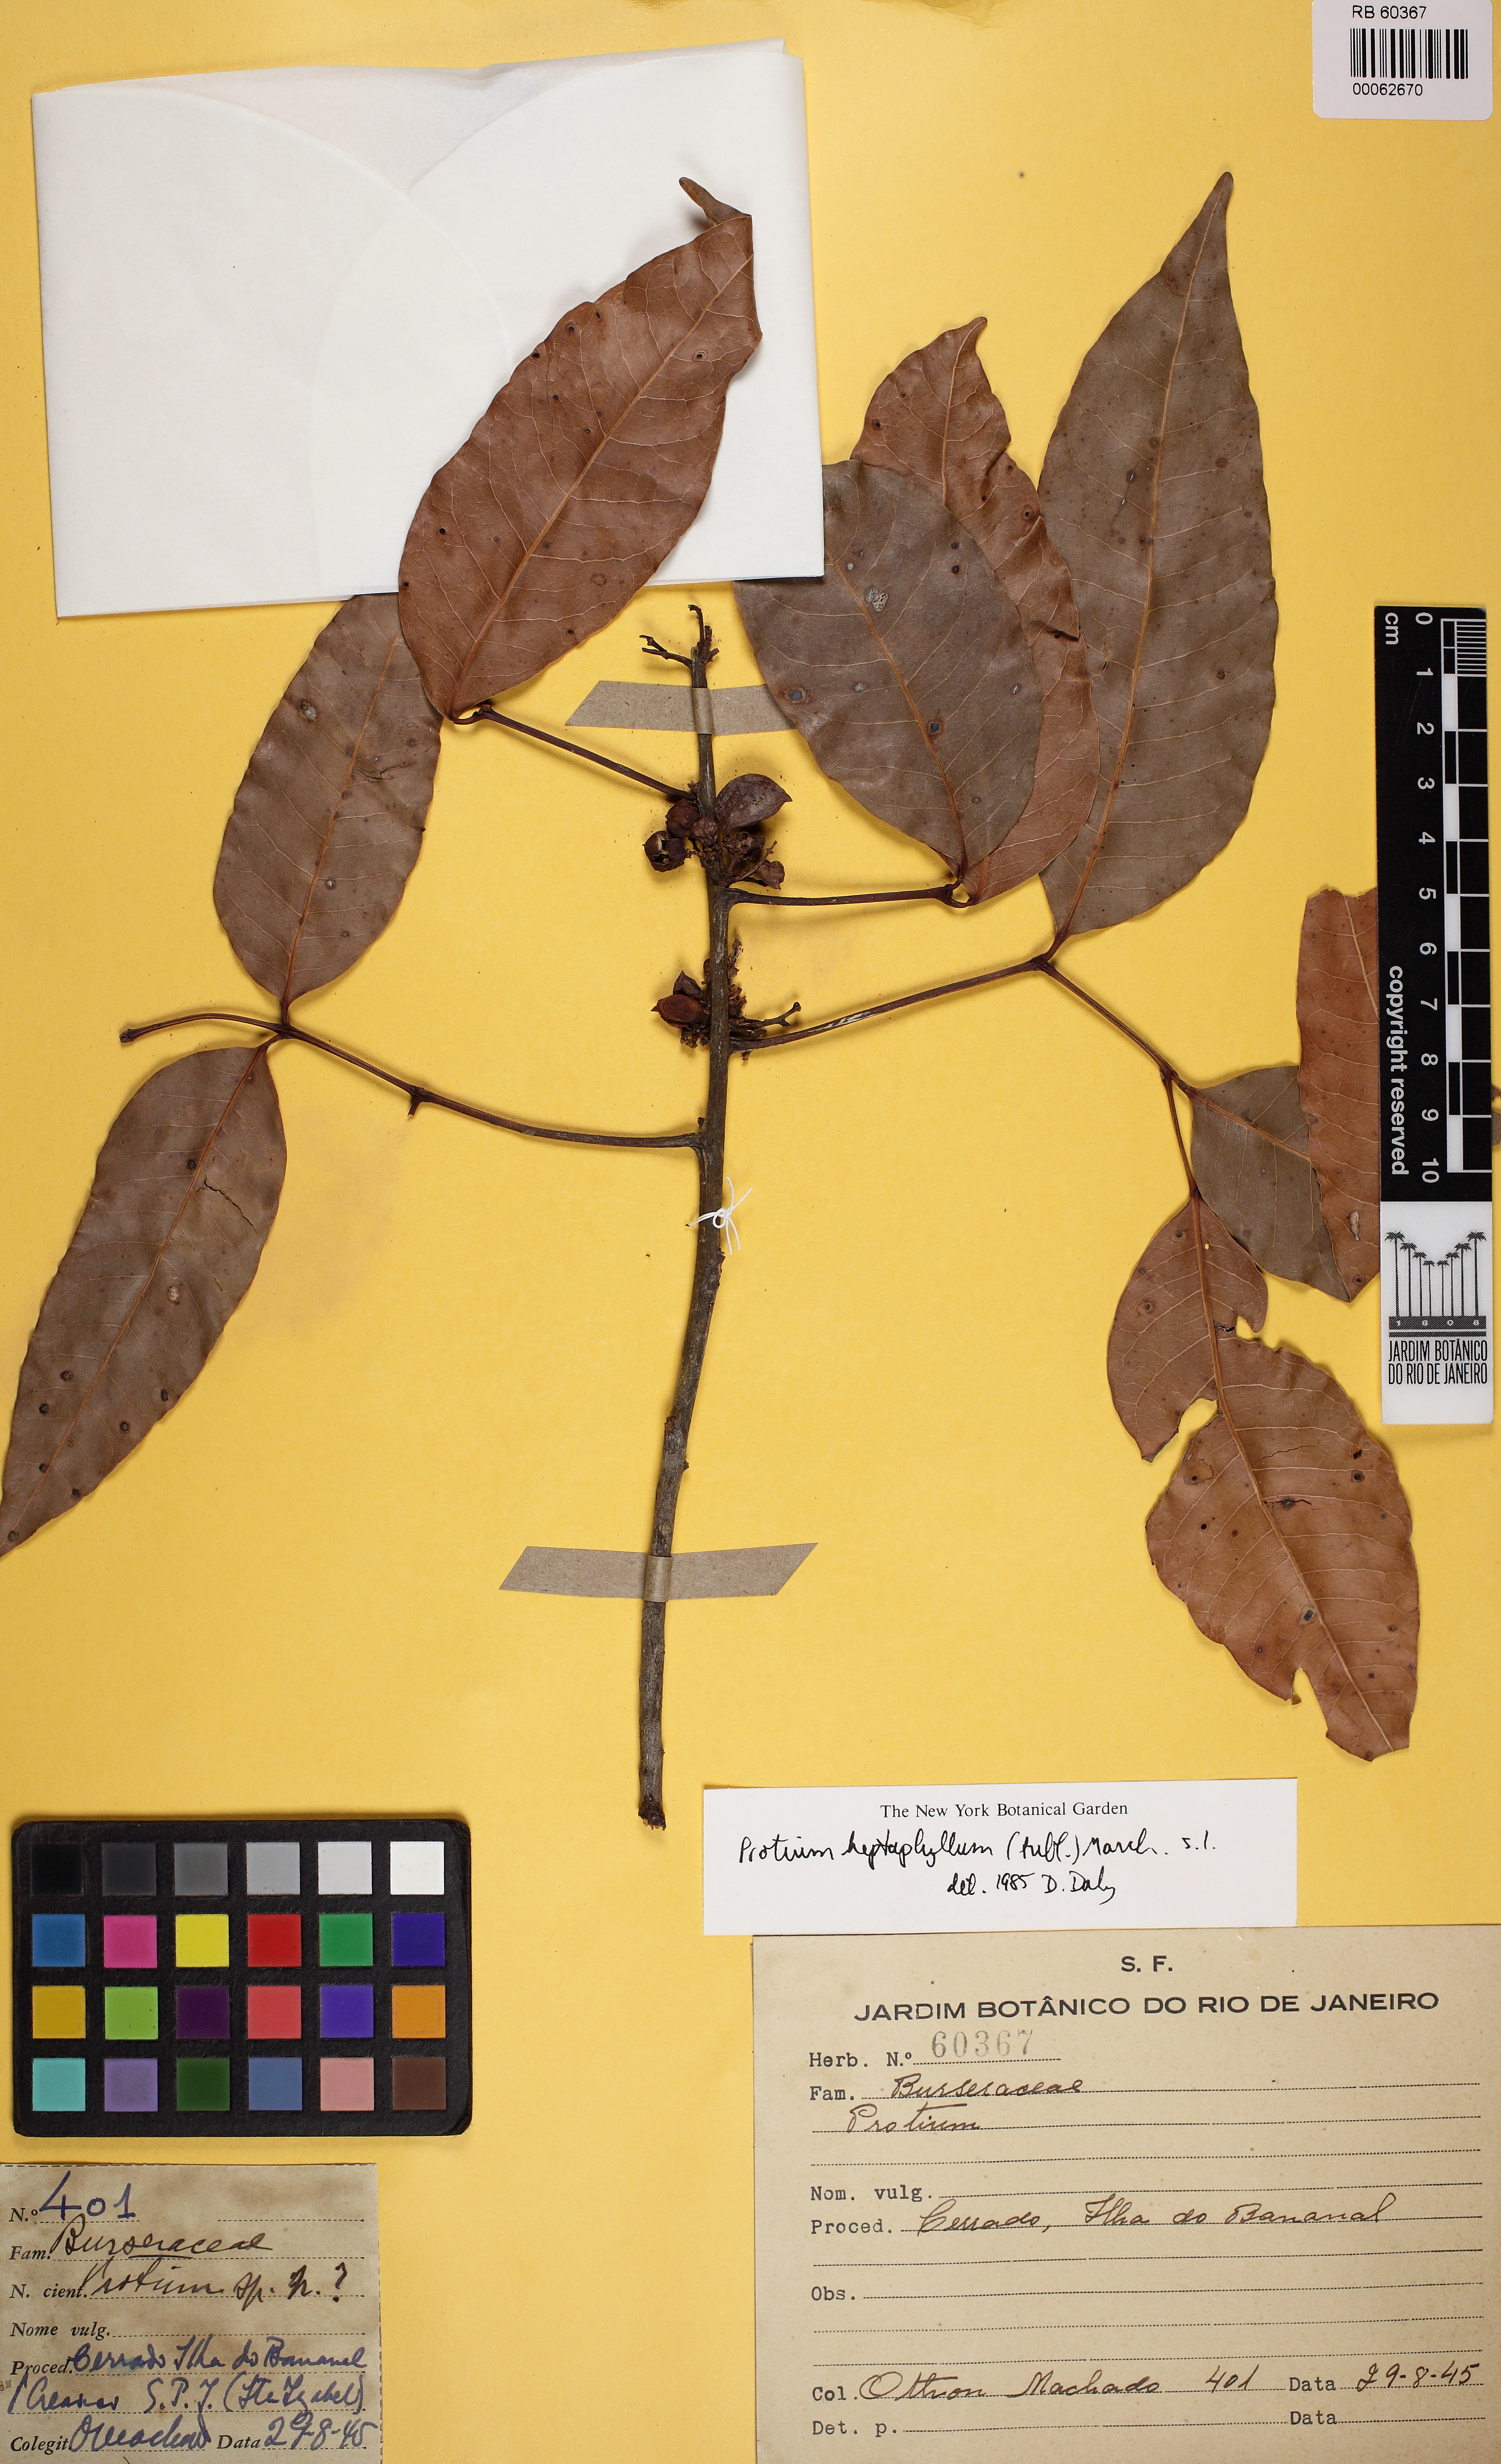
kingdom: Plantae
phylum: Tracheophyta
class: Magnoliopsida
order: Sapindales
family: Burseraceae
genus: Protium
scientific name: Protium
